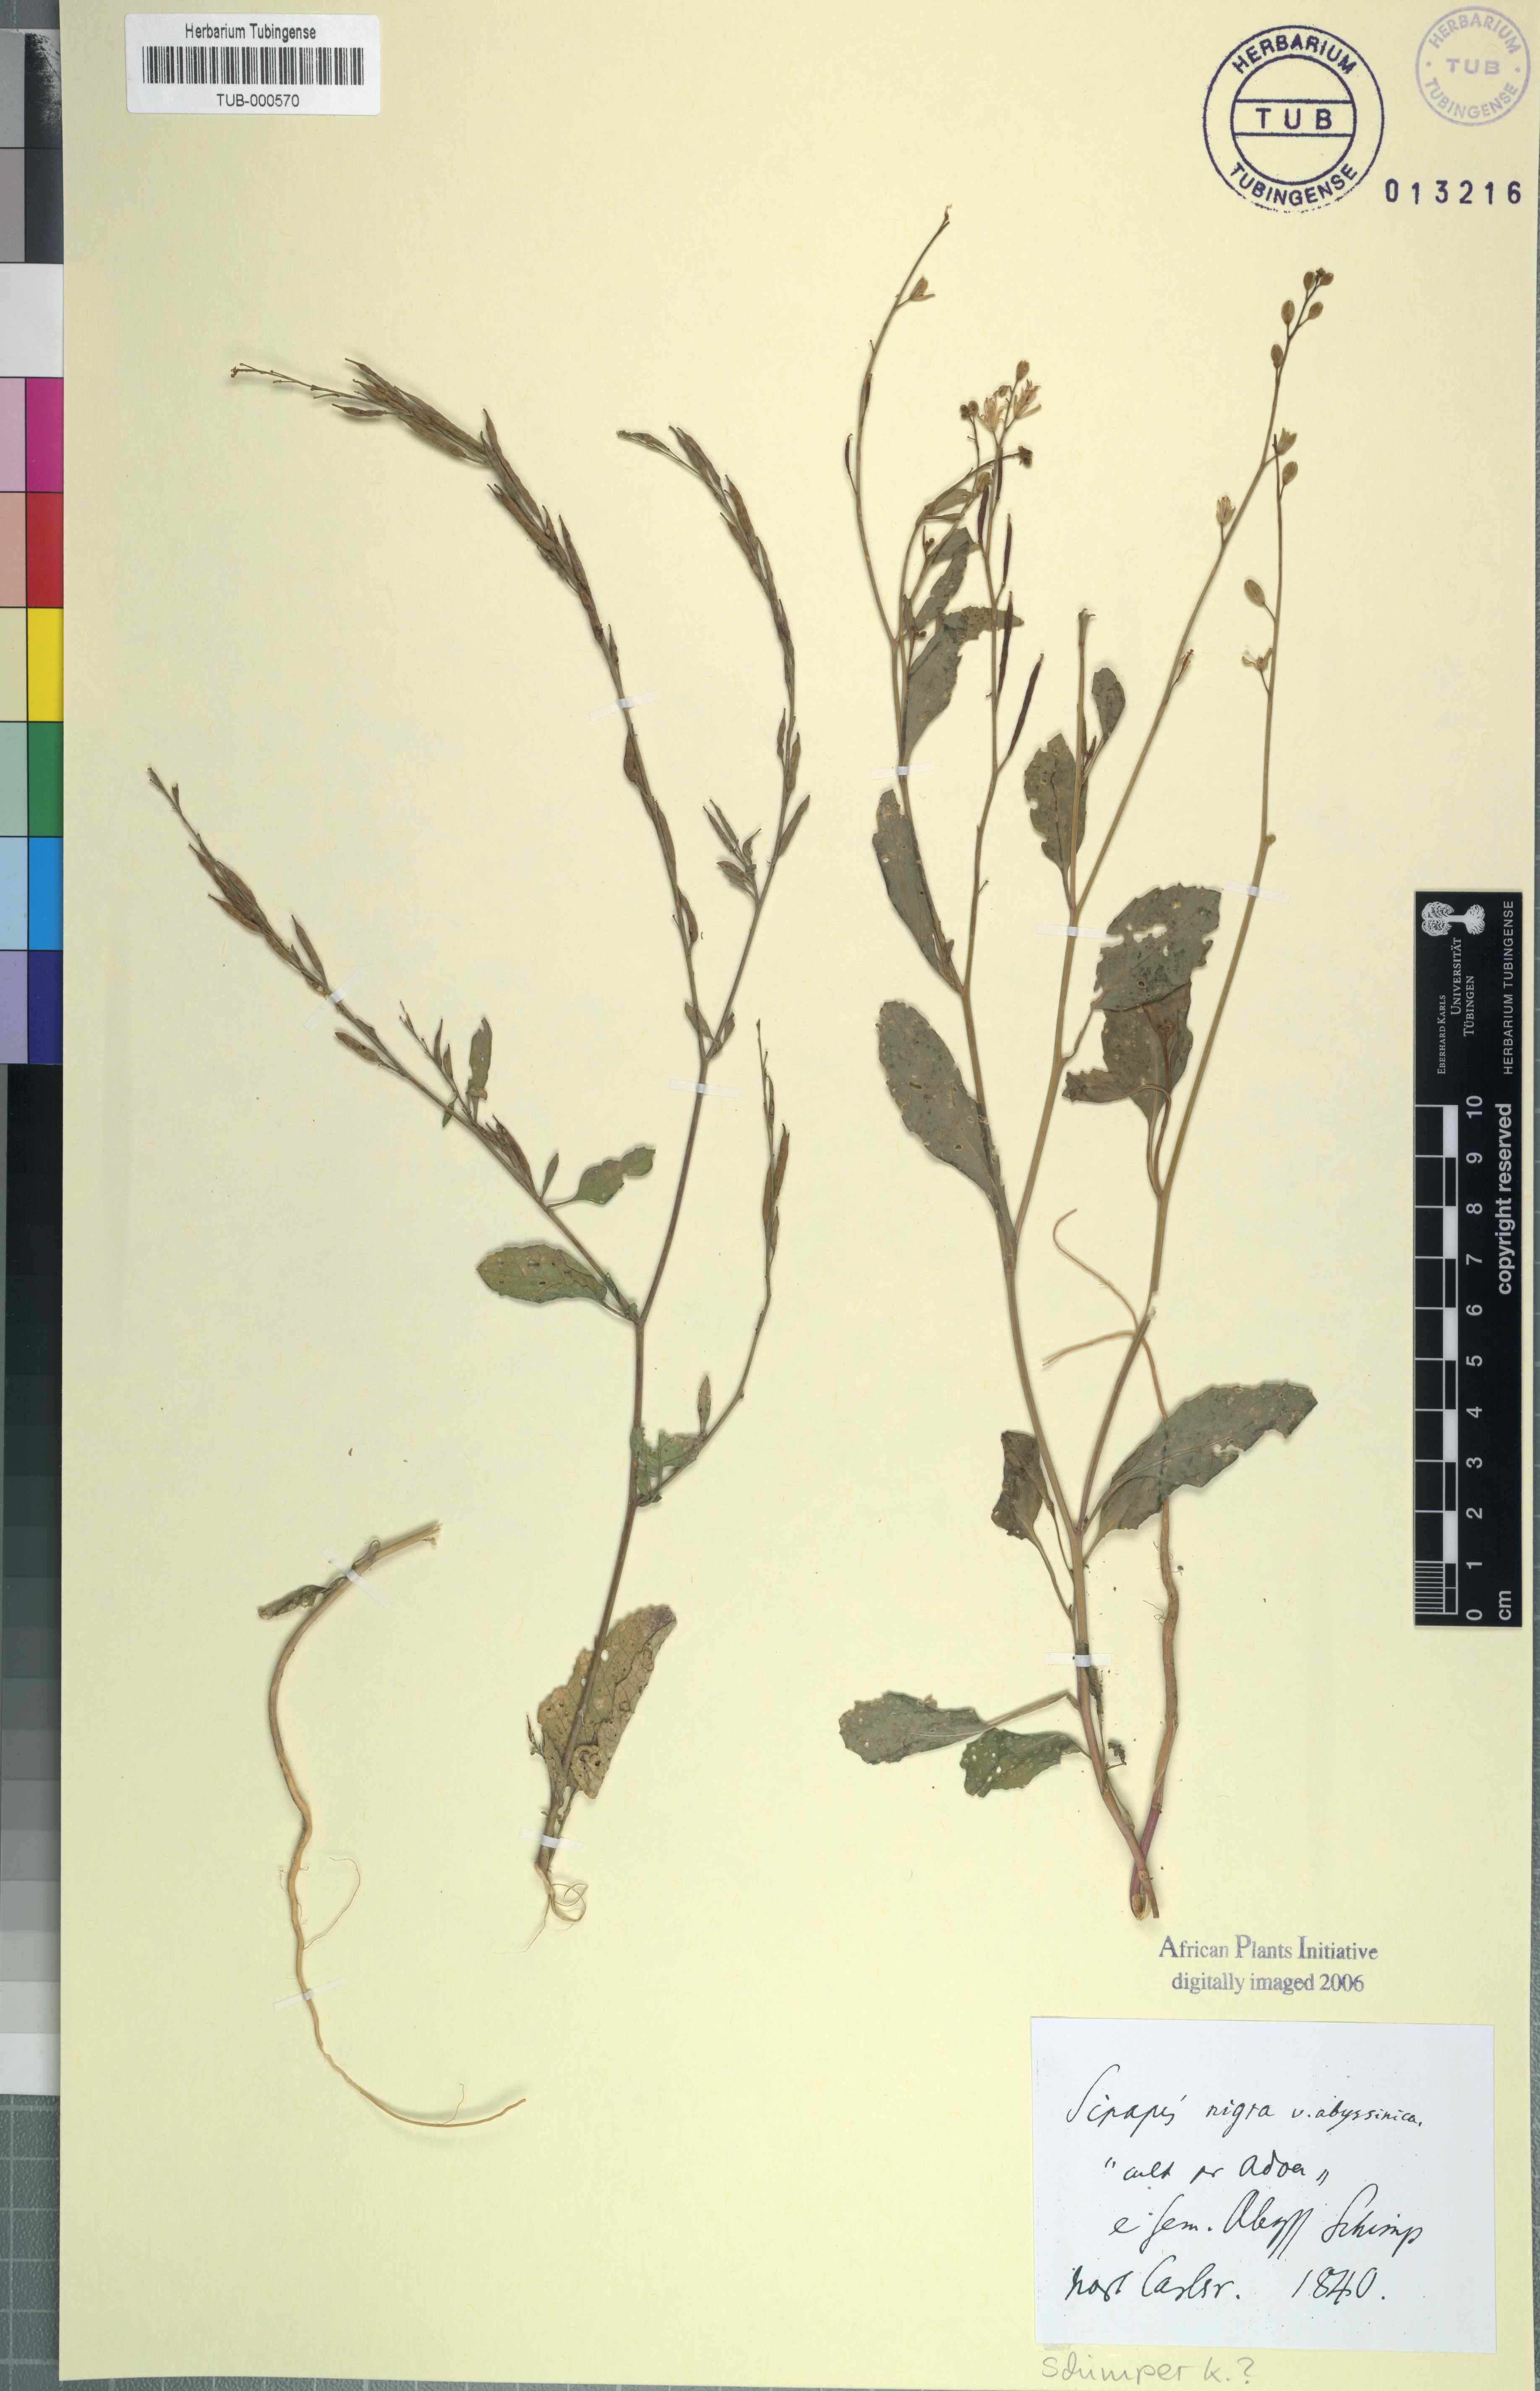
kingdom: Plantae
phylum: Tracheophyta
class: Magnoliopsida
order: Brassicales
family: Brassicaceae
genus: Brassica
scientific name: Brassica nigra
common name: Black mustard
